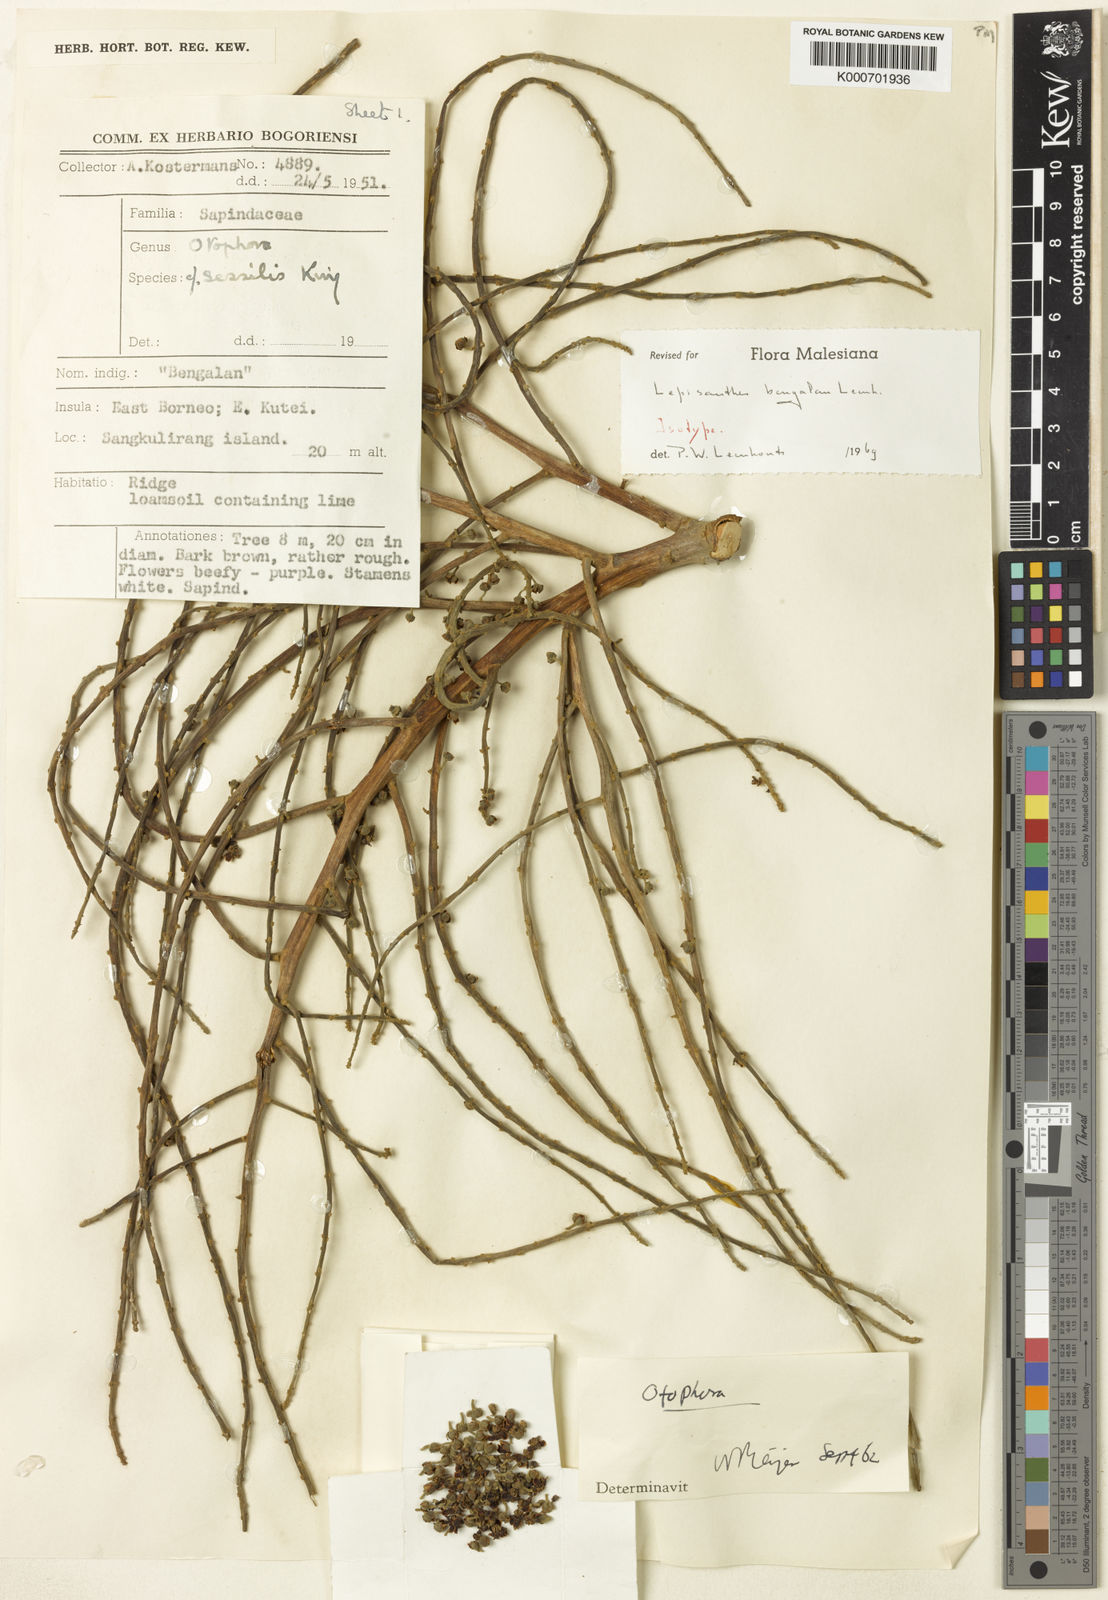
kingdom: Plantae
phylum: Tracheophyta
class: Magnoliopsida
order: Sapindales
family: Sapindaceae
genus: Lepisanthes
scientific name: Lepisanthes bengalan
